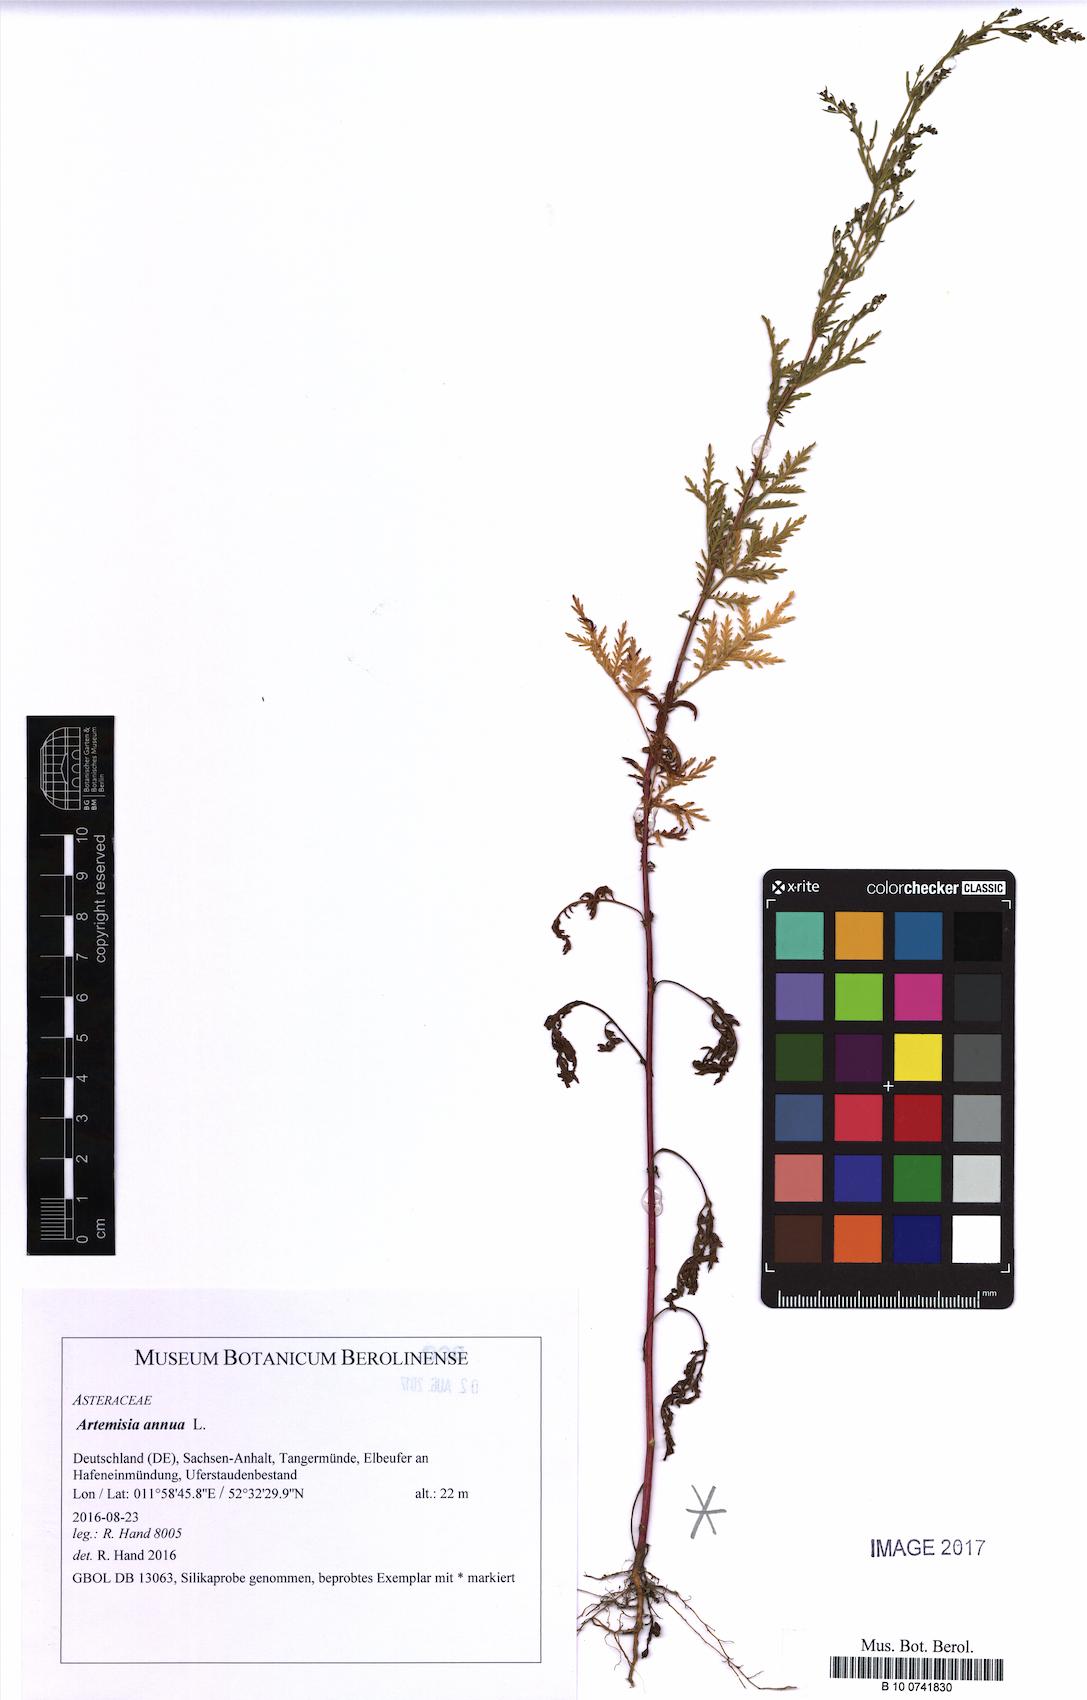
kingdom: Plantae
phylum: Tracheophyta
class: Magnoliopsida
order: Asterales
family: Asteraceae
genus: Artemisia
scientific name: Artemisia annua
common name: Sweet sagewort
